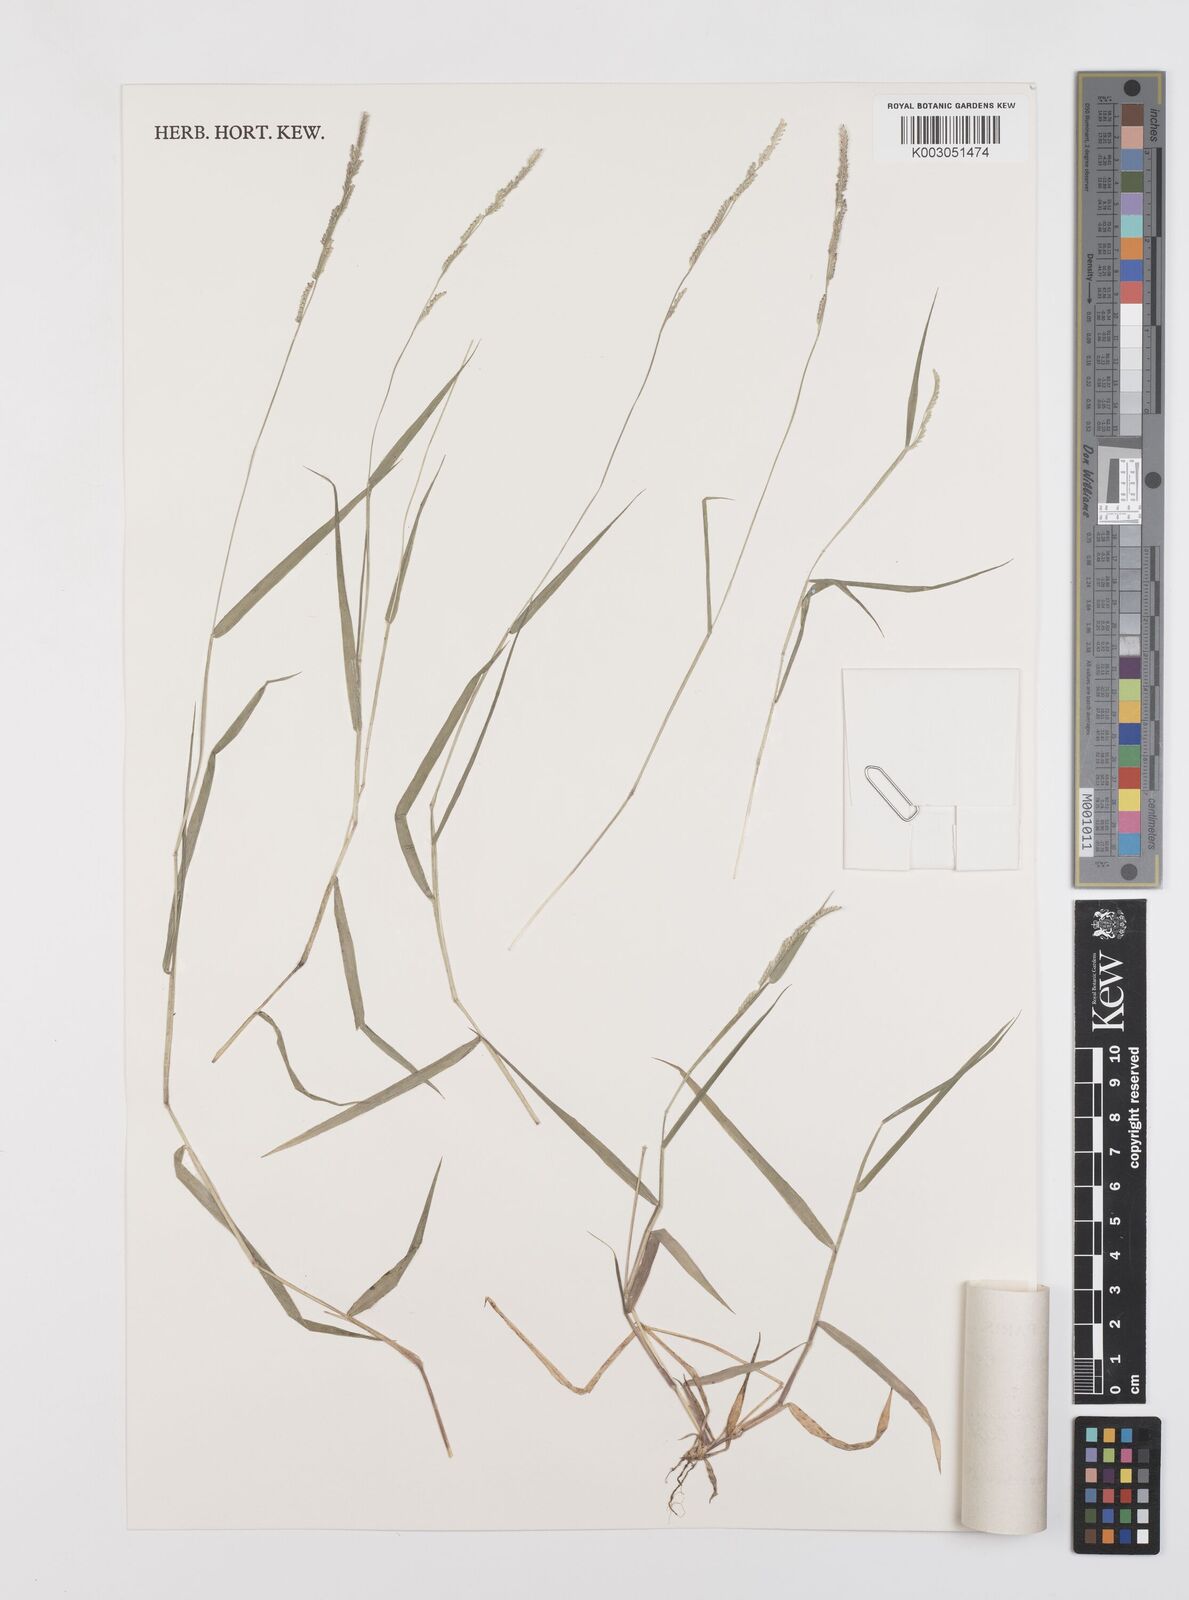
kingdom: Plantae
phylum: Tracheophyta
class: Liliopsida
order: Poales
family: Poaceae
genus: Moorochloa
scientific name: Moorochloa eruciformis
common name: Sweet signalgrass
